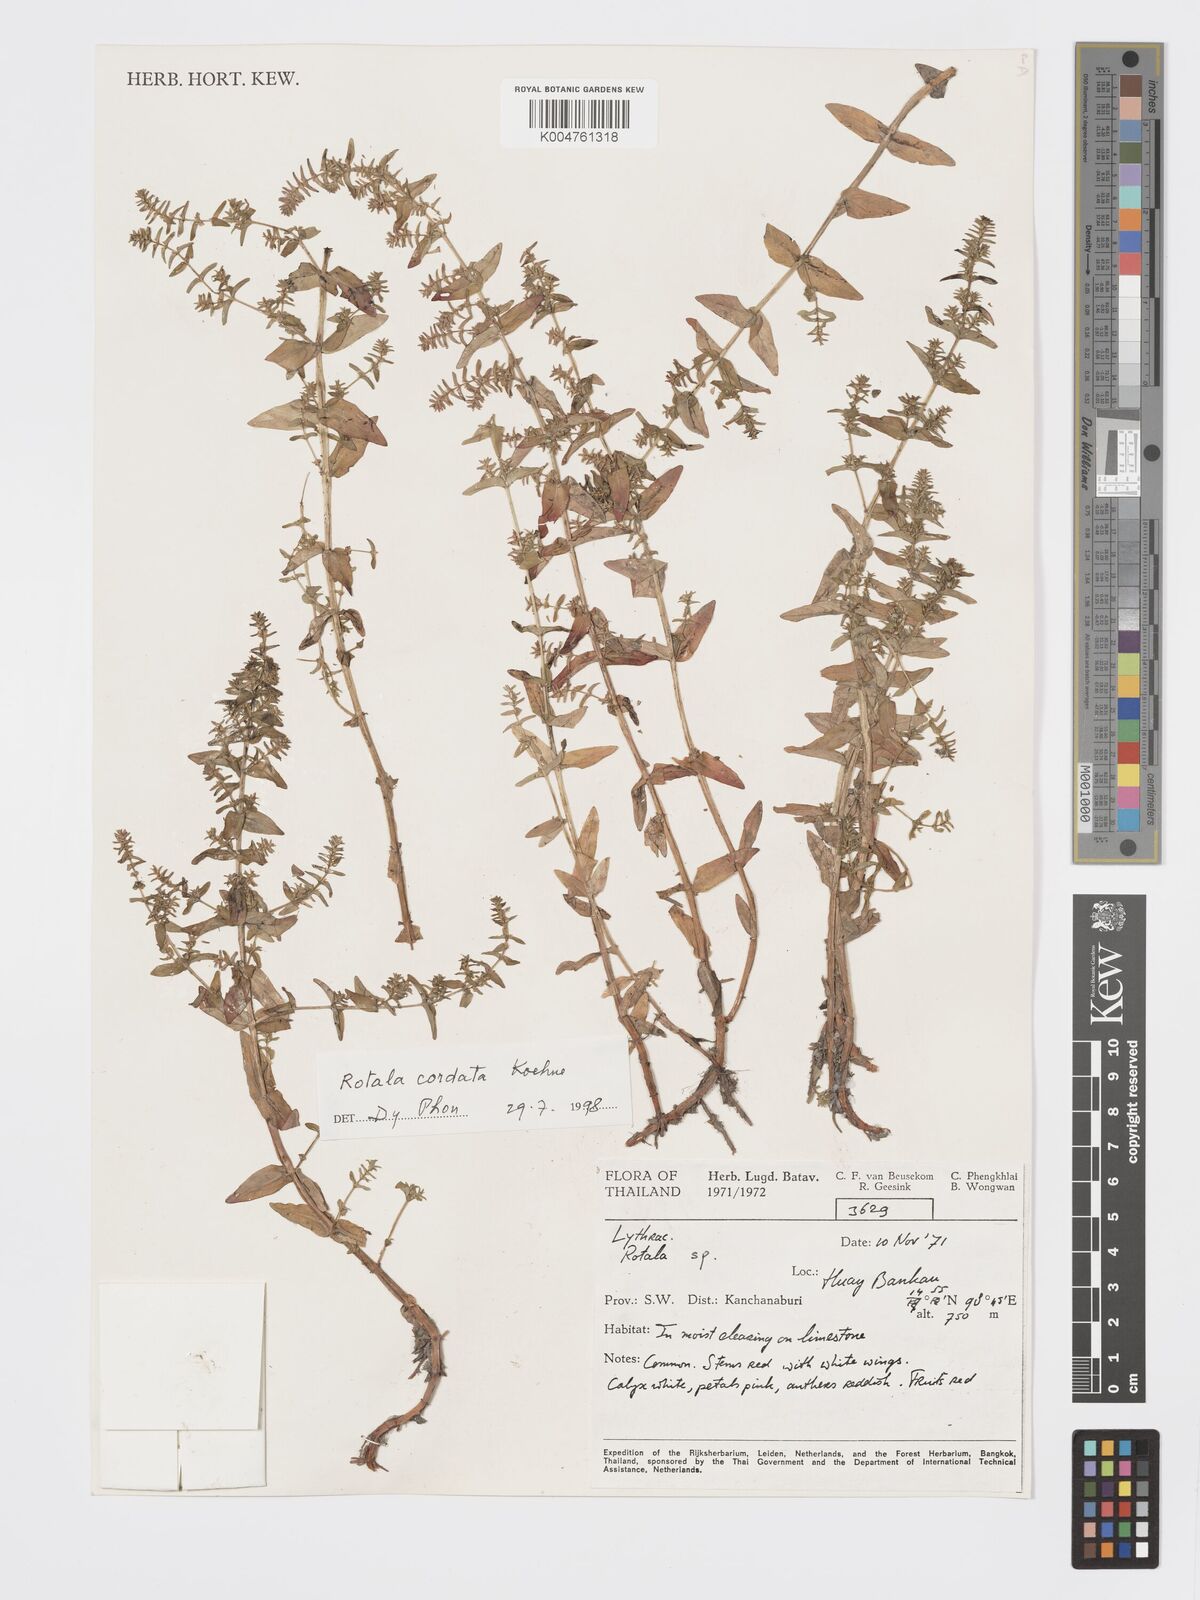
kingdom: Plantae
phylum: Tracheophyta
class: Magnoliopsida
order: Myrtales
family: Lythraceae
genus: Rotala
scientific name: Rotala cordata
